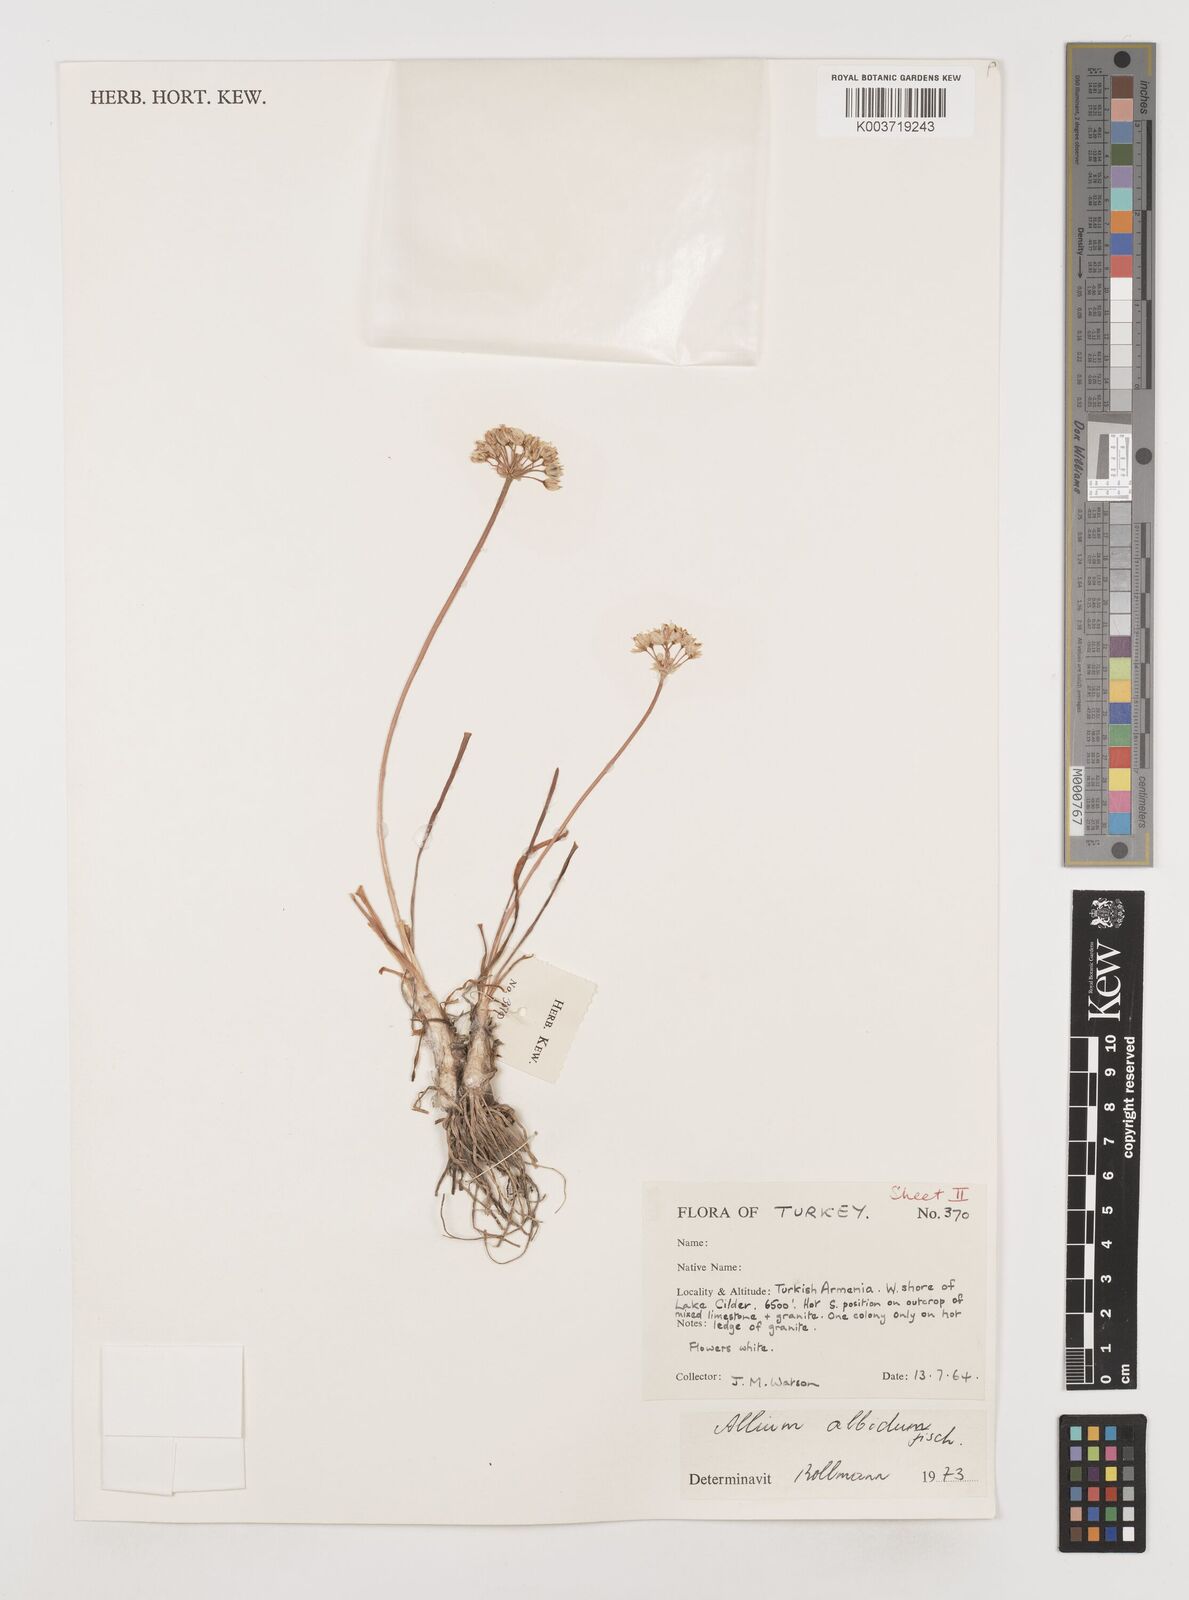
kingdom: Plantae
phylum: Tracheophyta
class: Liliopsida
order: Asparagales
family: Amaryllidaceae
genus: Allium
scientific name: Allium denudatum
